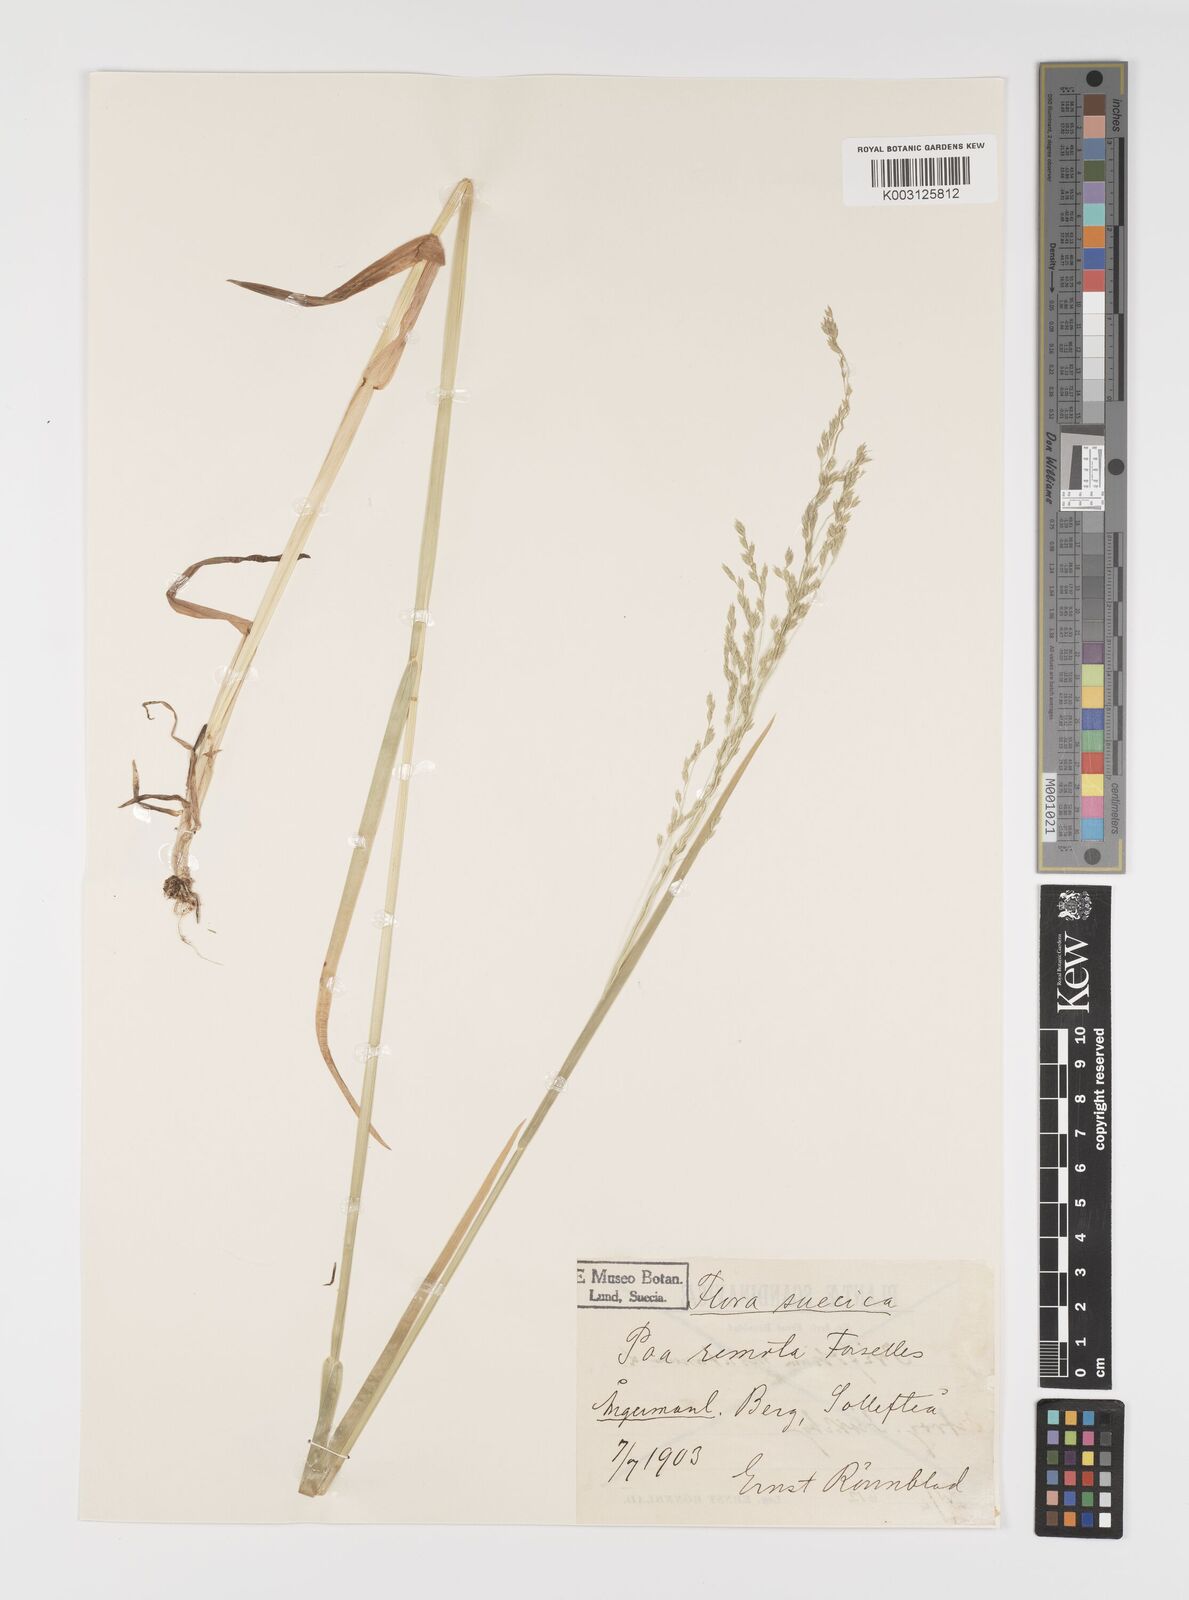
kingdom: Plantae
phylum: Tracheophyta
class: Liliopsida
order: Poales
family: Poaceae
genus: Poa
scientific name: Poa remota
